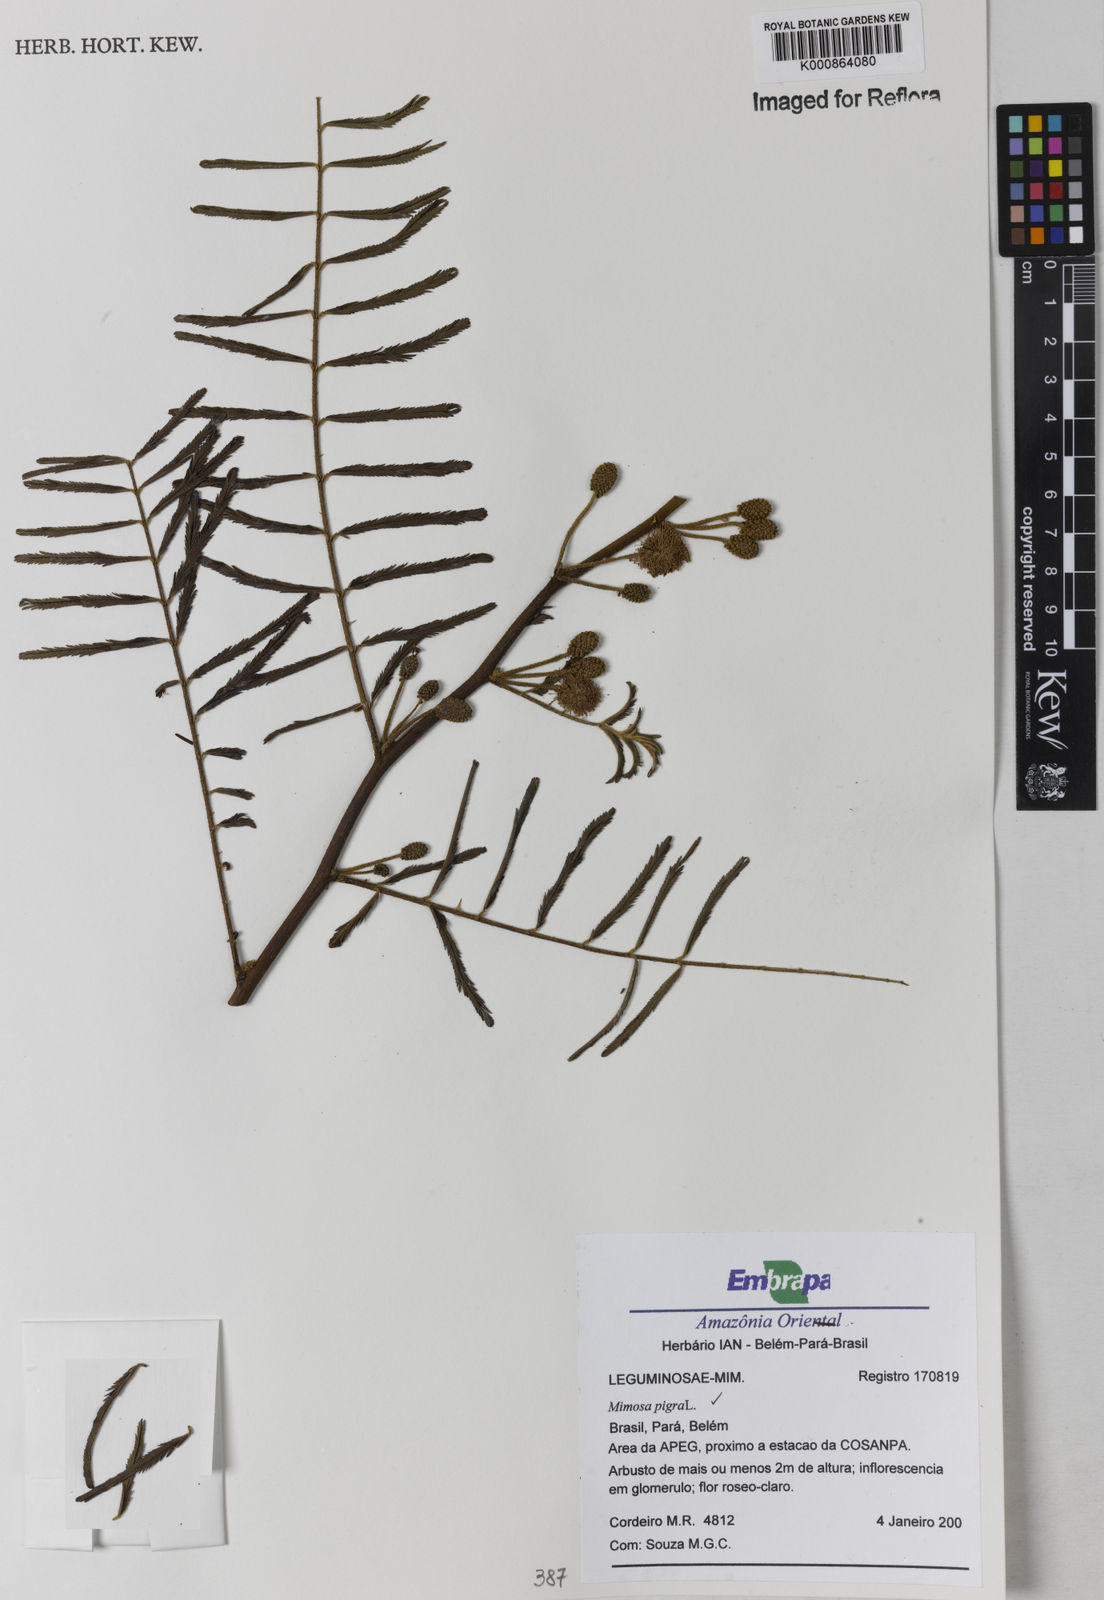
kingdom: Plantae
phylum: Tracheophyta
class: Magnoliopsida
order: Fabales
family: Fabaceae
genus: Mimosa
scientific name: Mimosa pigra
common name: Black mimosa
